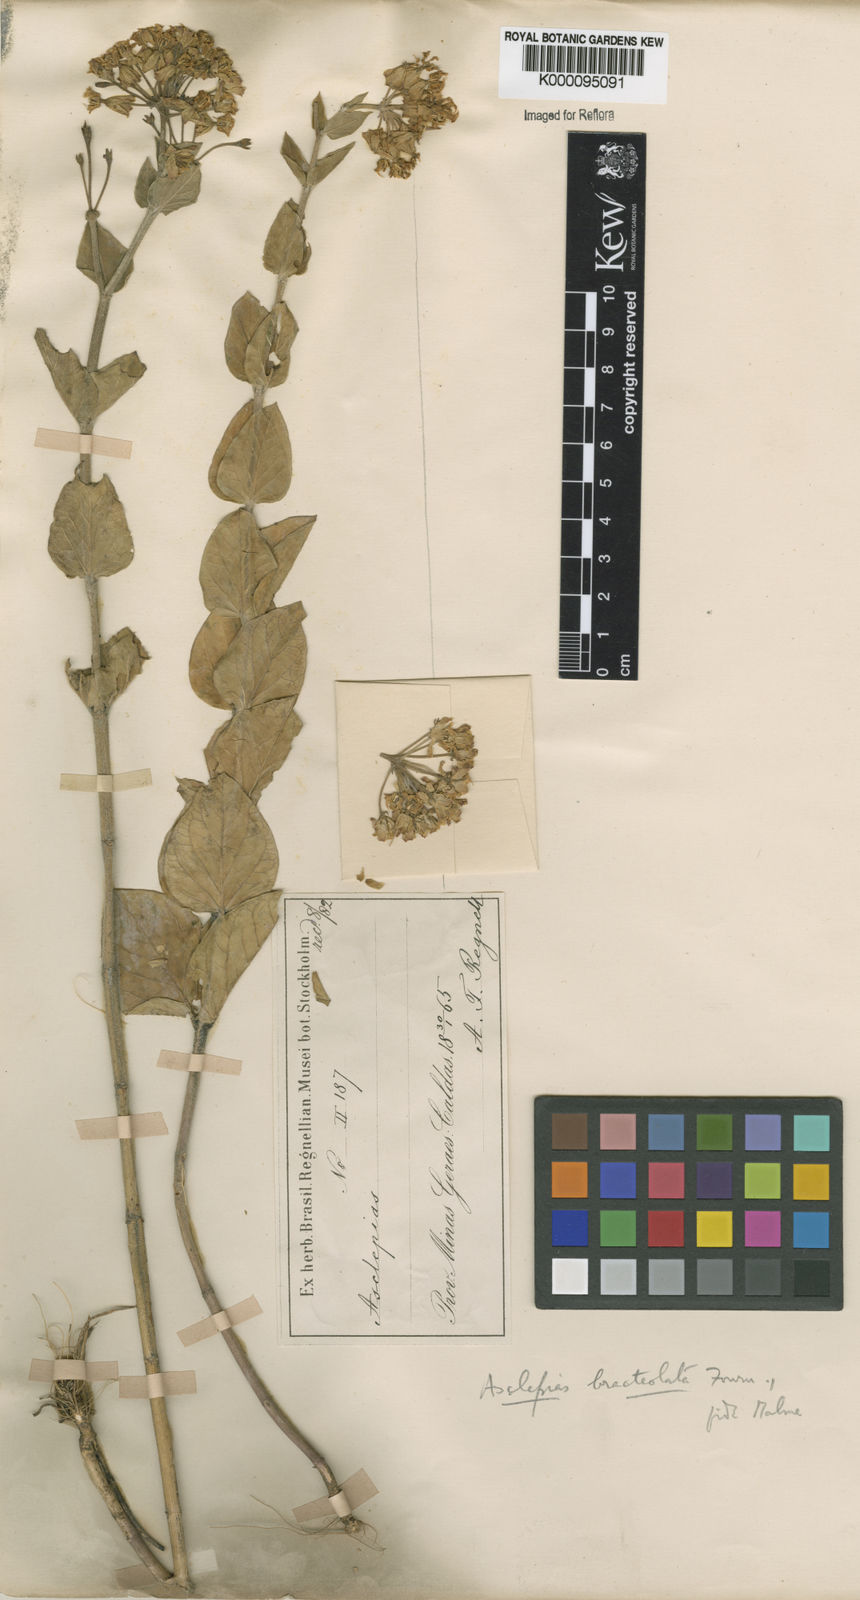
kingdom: Plantae
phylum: Tracheophyta
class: Magnoliopsida
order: Gentianales
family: Apocynaceae
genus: Asclepias
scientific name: Asclepias bracteolata
